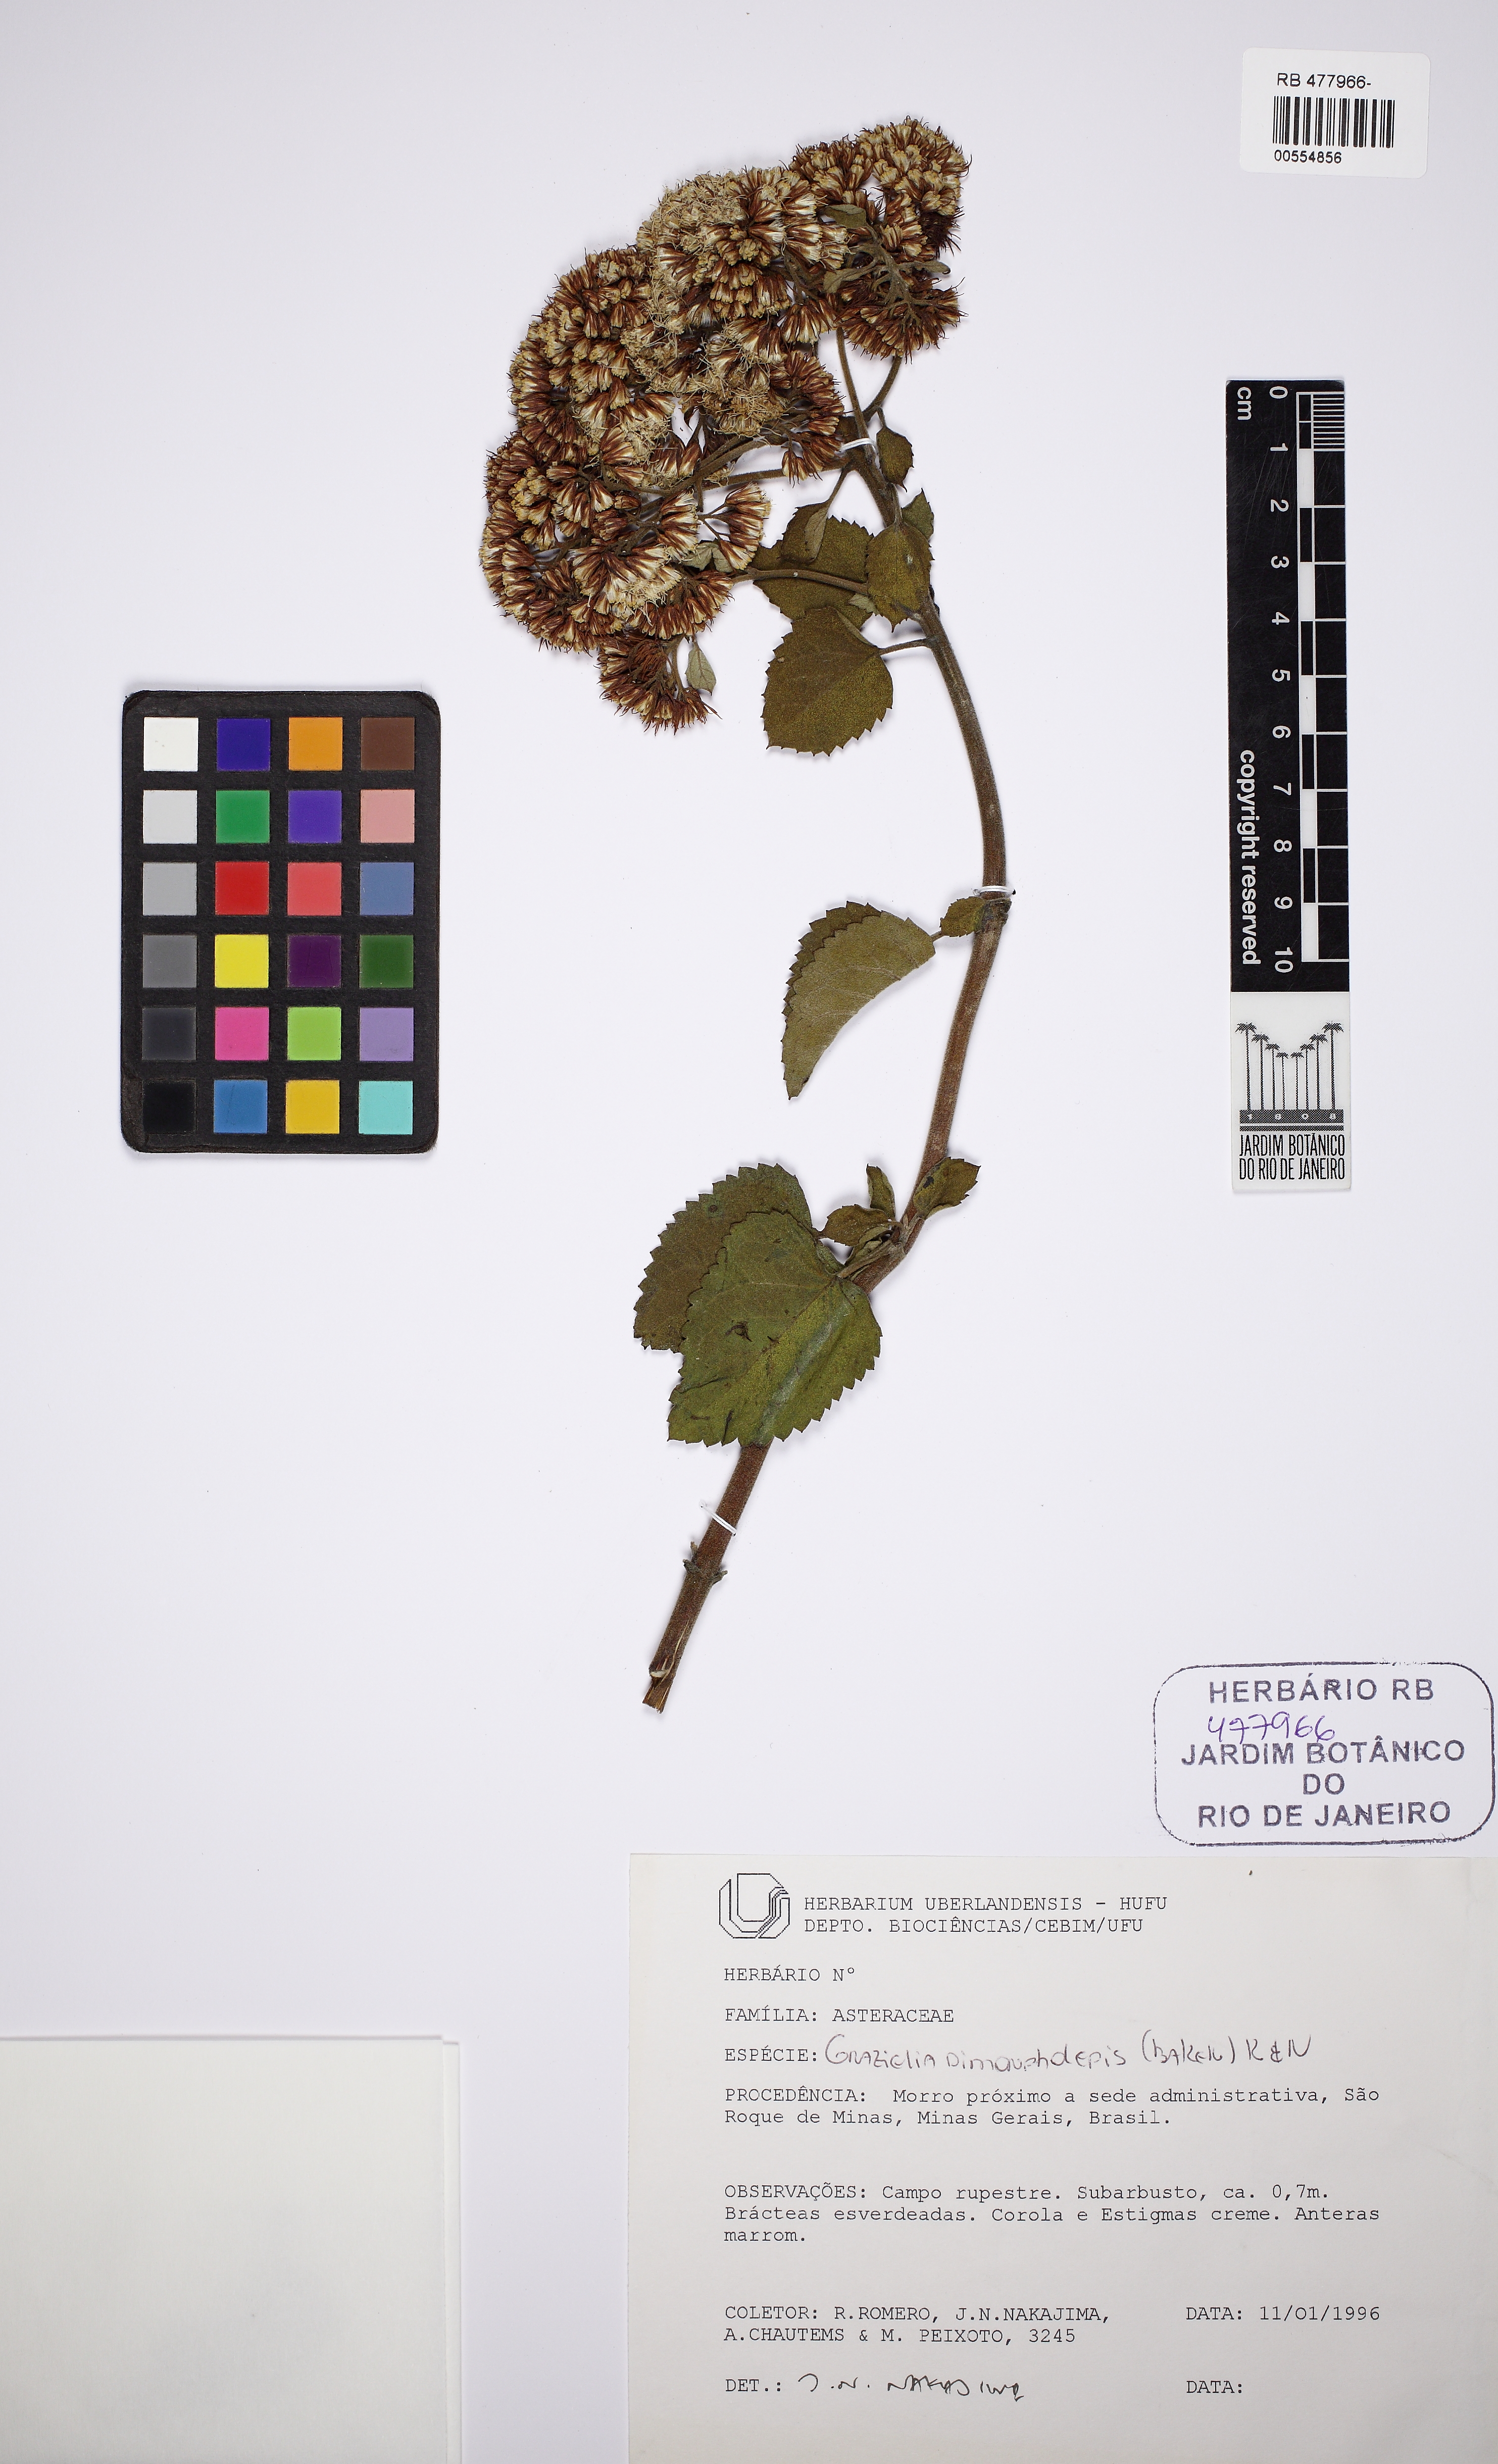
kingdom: Plantae
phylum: Tracheophyta
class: Magnoliopsida
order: Asterales
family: Asteraceae
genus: Grazielia
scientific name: Grazielia dimorpholepis
